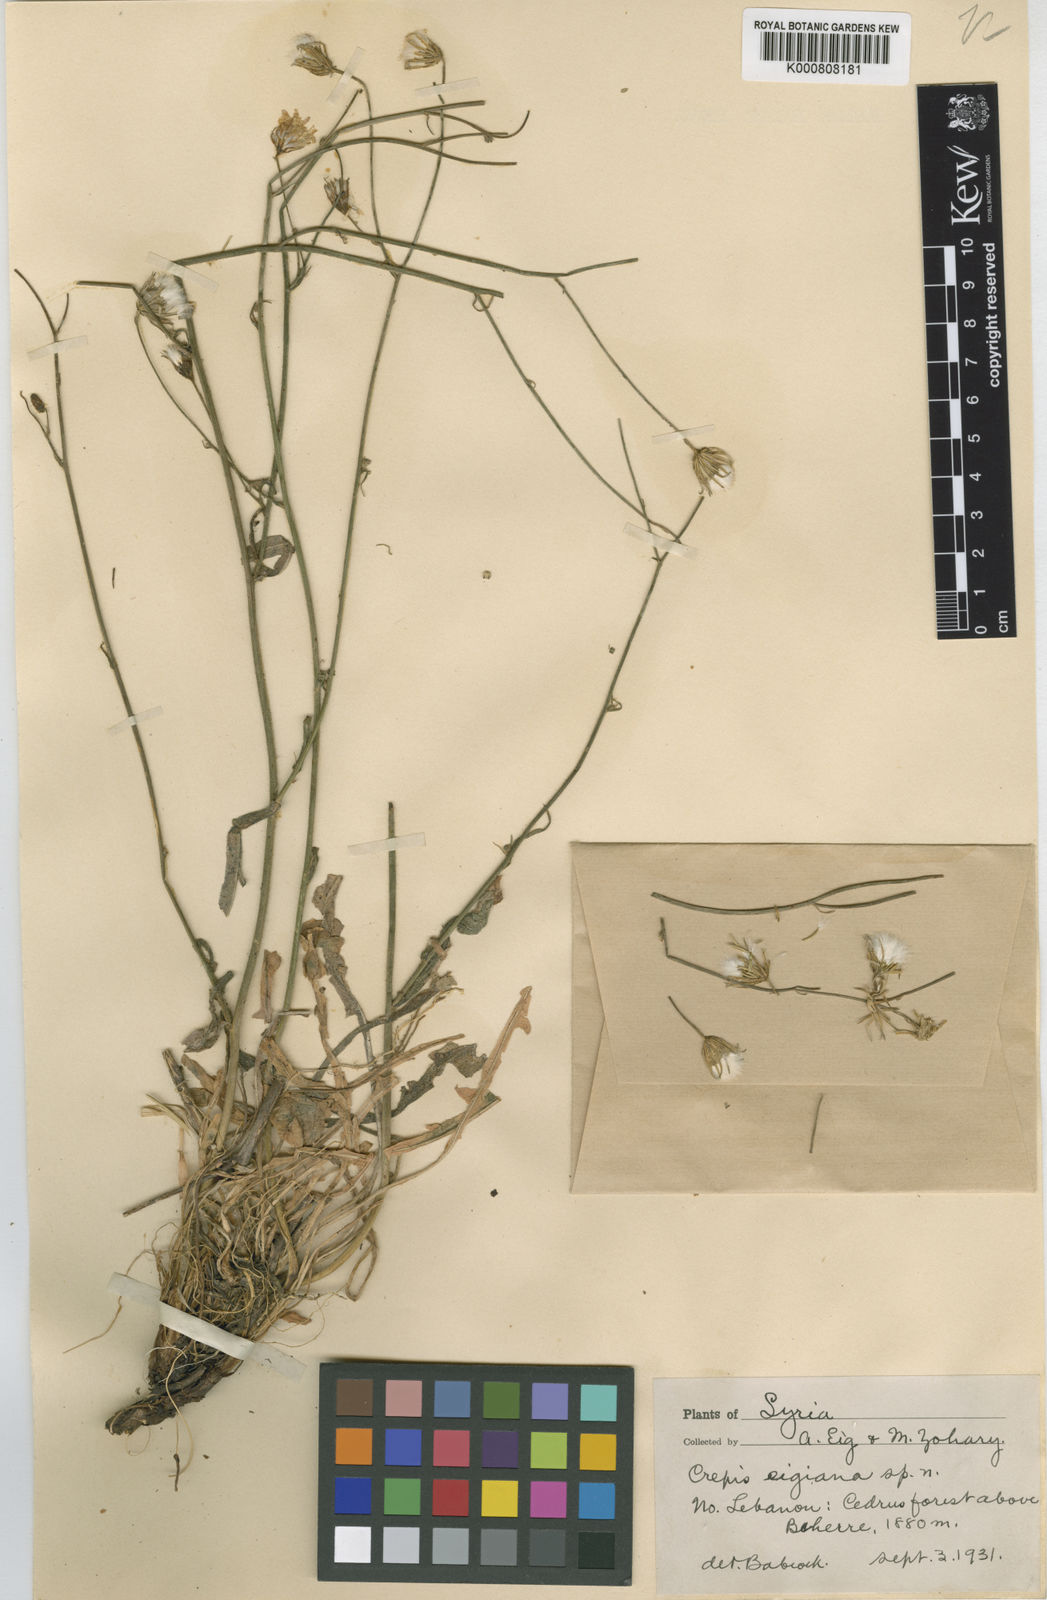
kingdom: Plantae
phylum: Tracheophyta
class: Magnoliopsida
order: Asterales
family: Asteraceae
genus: Crepis
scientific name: Crepis reuteriana
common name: Hawk's-beard
